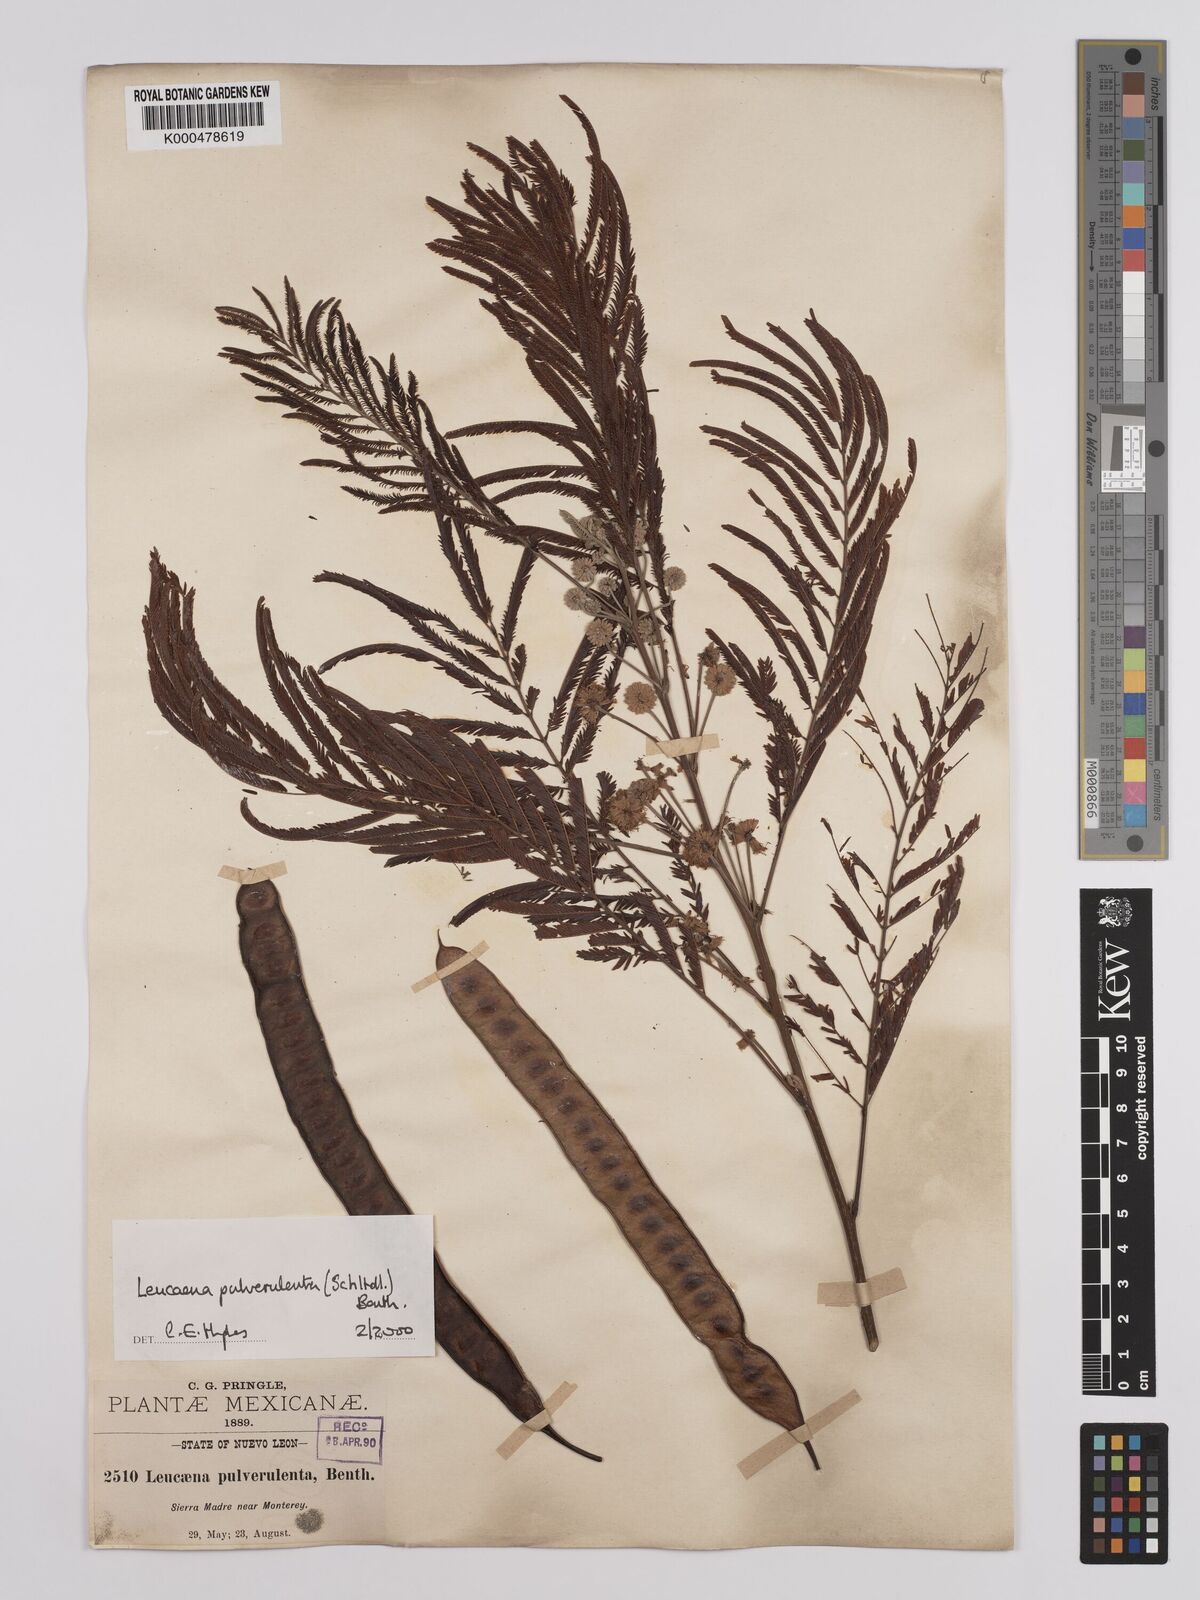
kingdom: Plantae
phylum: Tracheophyta
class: Magnoliopsida
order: Fabales
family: Fabaceae
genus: Leucaena
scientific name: Leucaena pulverulenta
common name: Great leadtree
